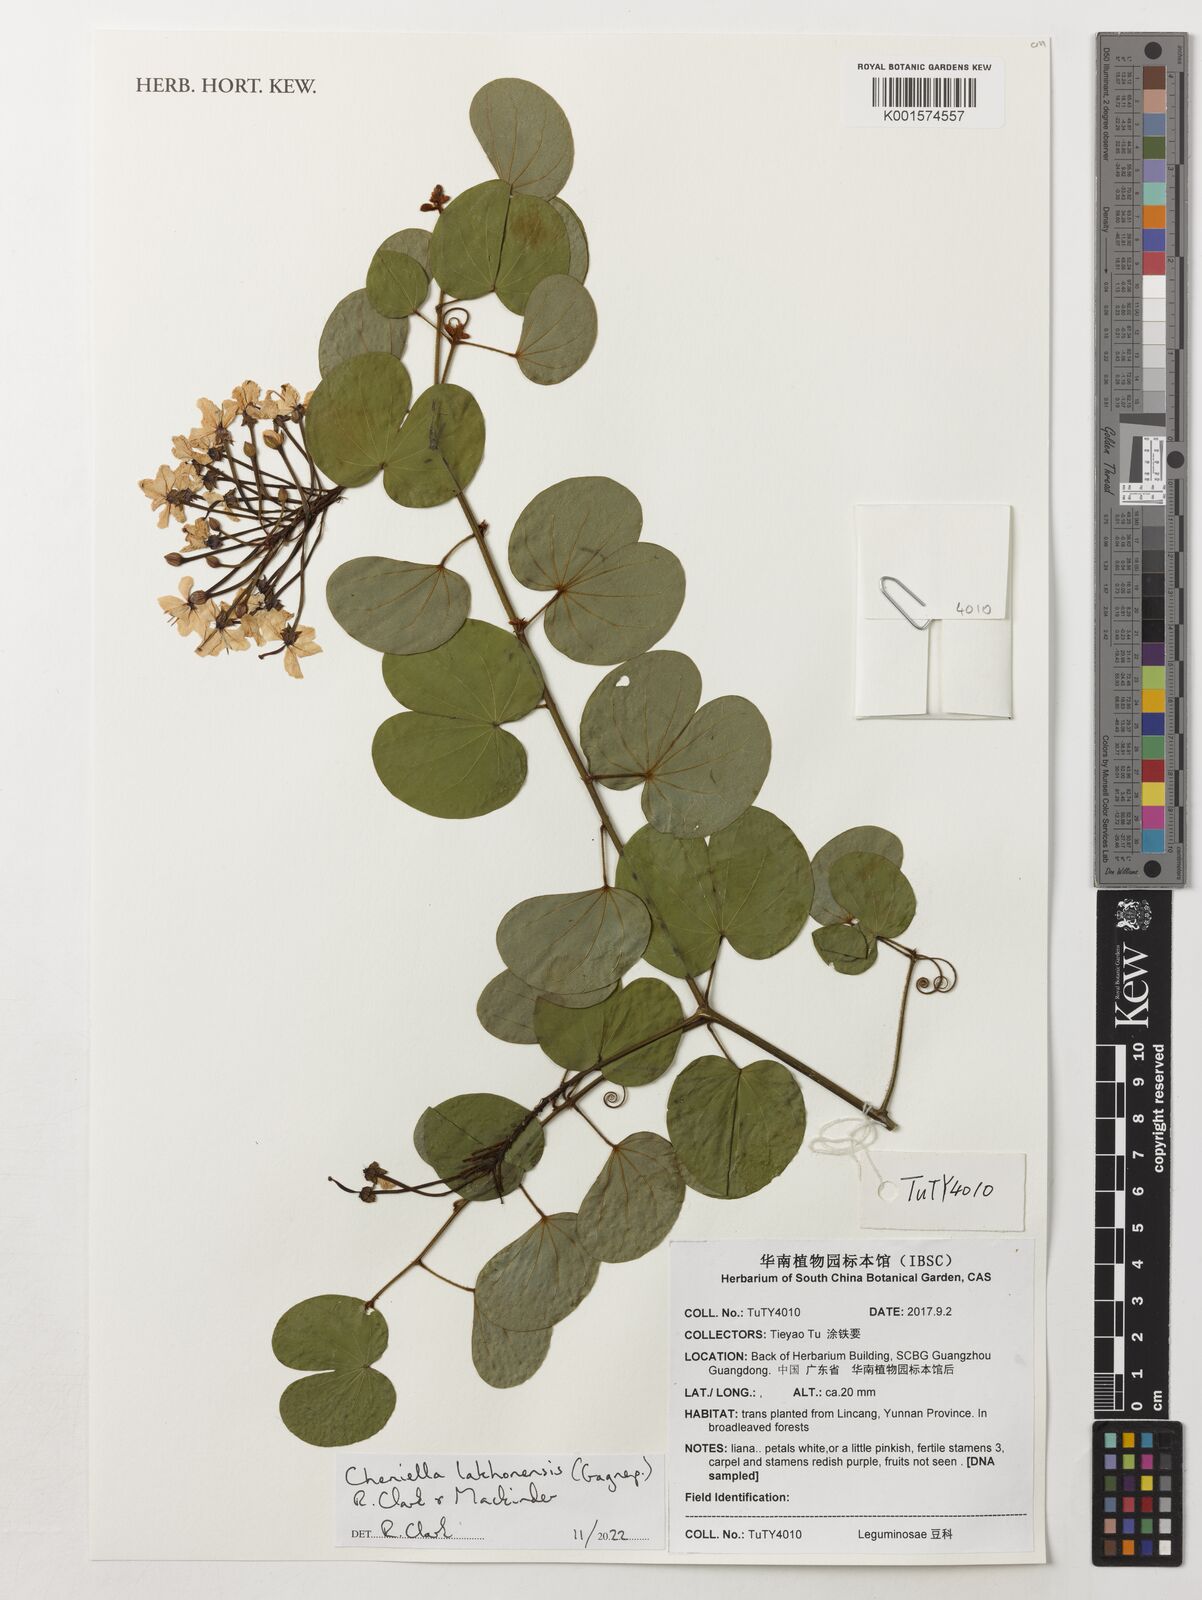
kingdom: Plantae
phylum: Tracheophyta
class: Magnoliopsida
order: Fabales
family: Fabaceae
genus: Cheniella
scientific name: Cheniella lakhonensis
